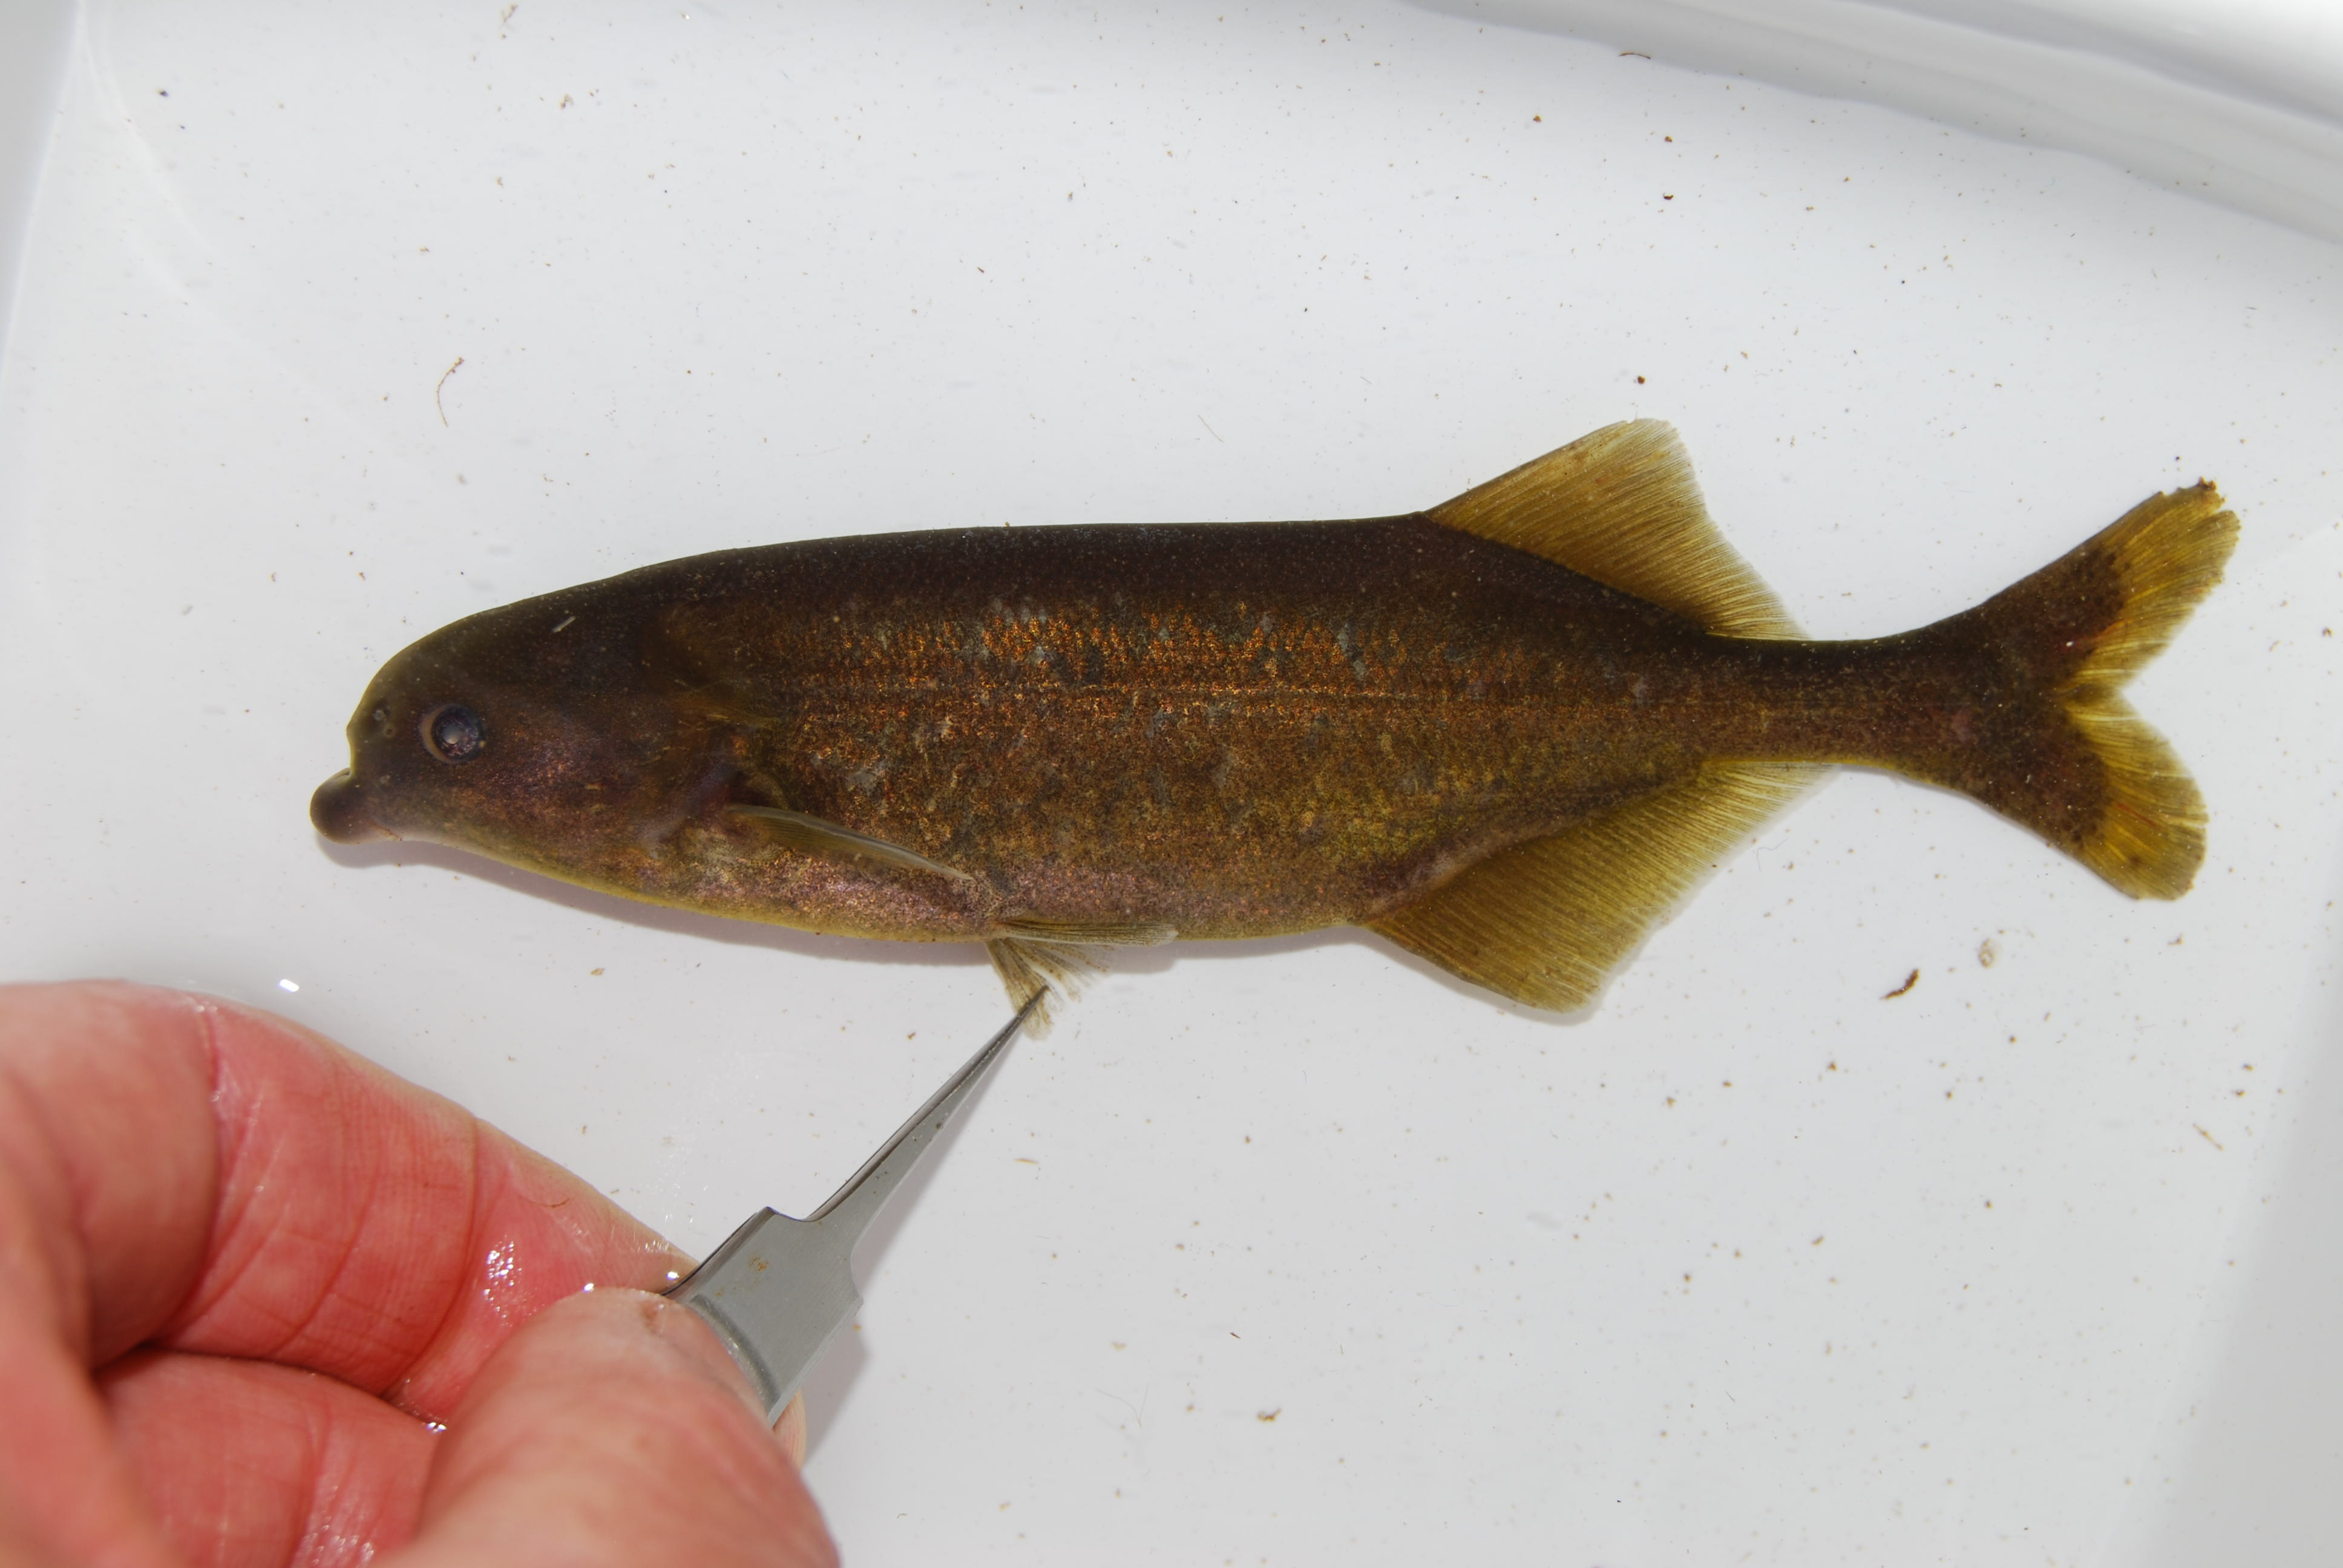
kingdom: Animalia
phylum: Chordata
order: Osteoglossiformes
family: Mormyridae
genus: Marcusenius
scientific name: Marcusenius pongolensis
